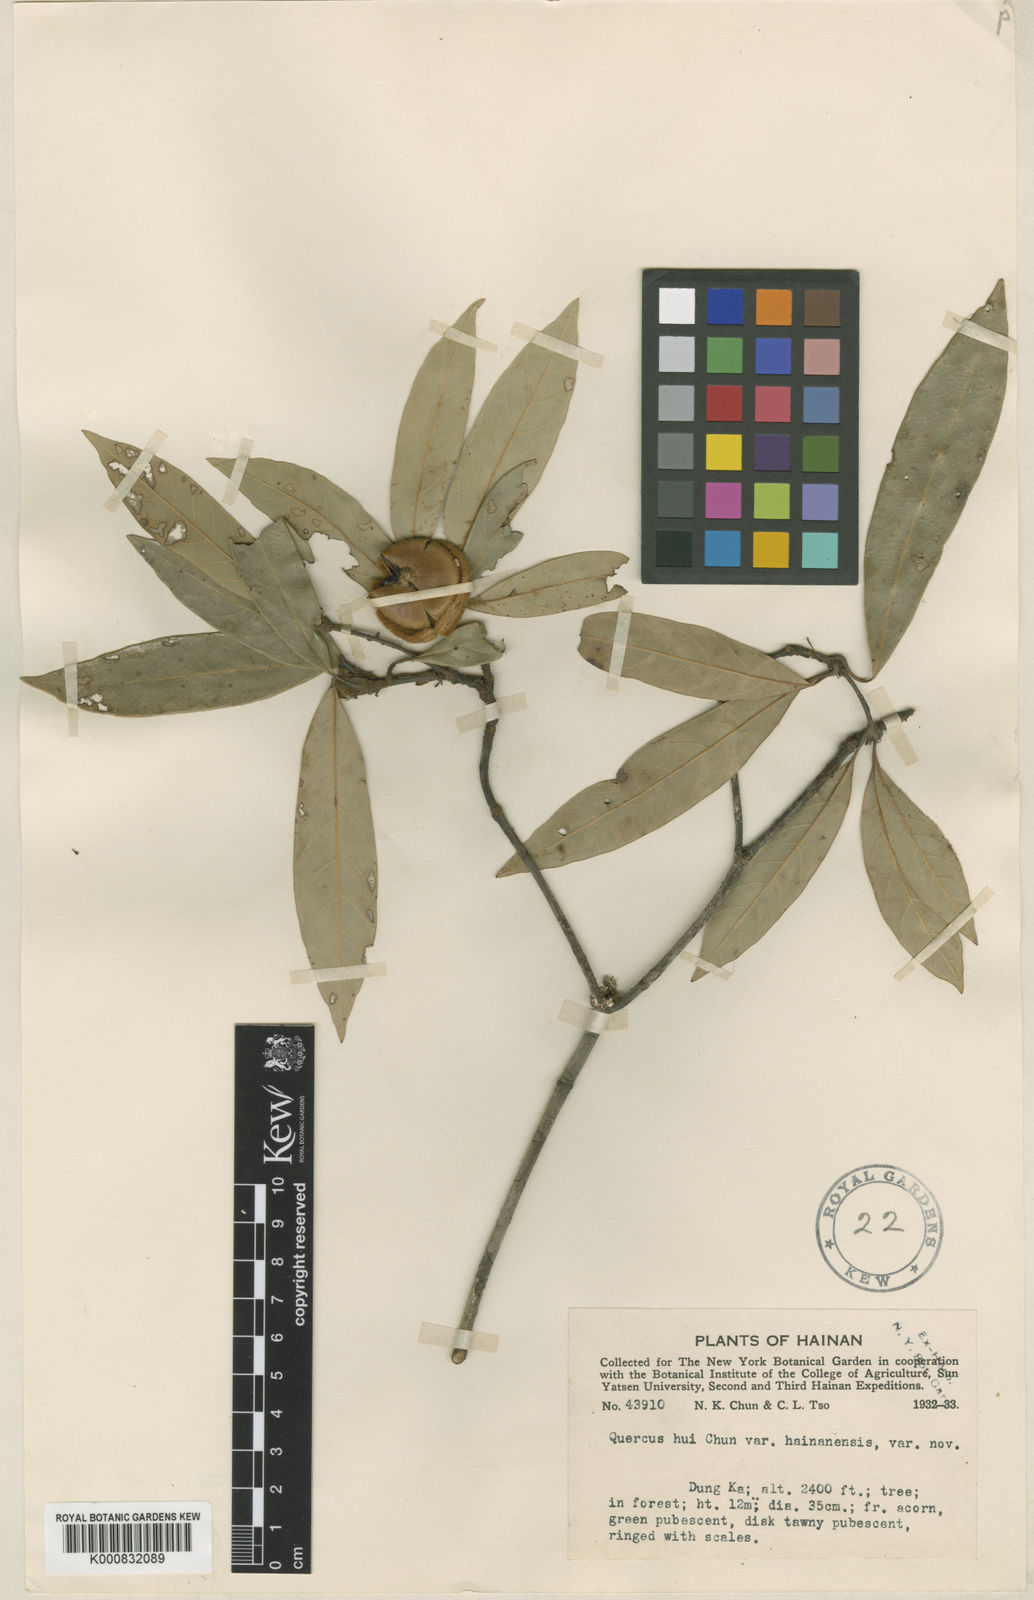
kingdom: Plantae
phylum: Tracheophyta
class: Magnoliopsida
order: Fagales
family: Fagaceae
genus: Quercus
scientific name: Quercus hui
